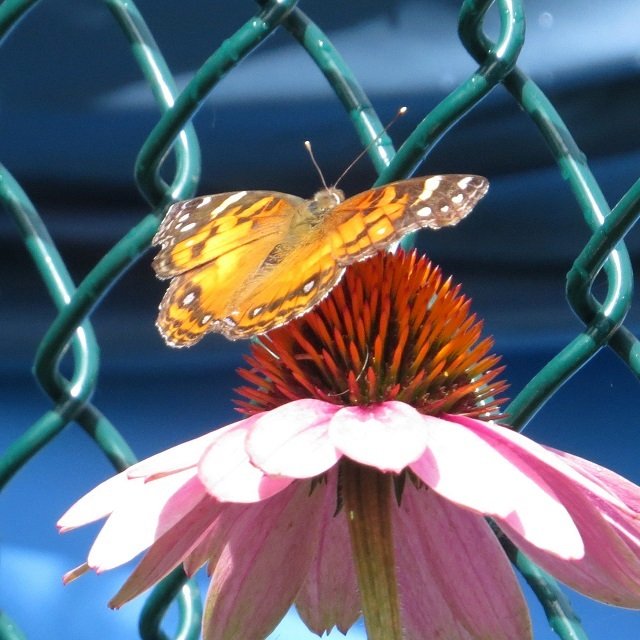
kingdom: Animalia
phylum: Arthropoda
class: Insecta
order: Lepidoptera
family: Nymphalidae
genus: Vanessa
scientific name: Vanessa virginiensis
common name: American Lady
